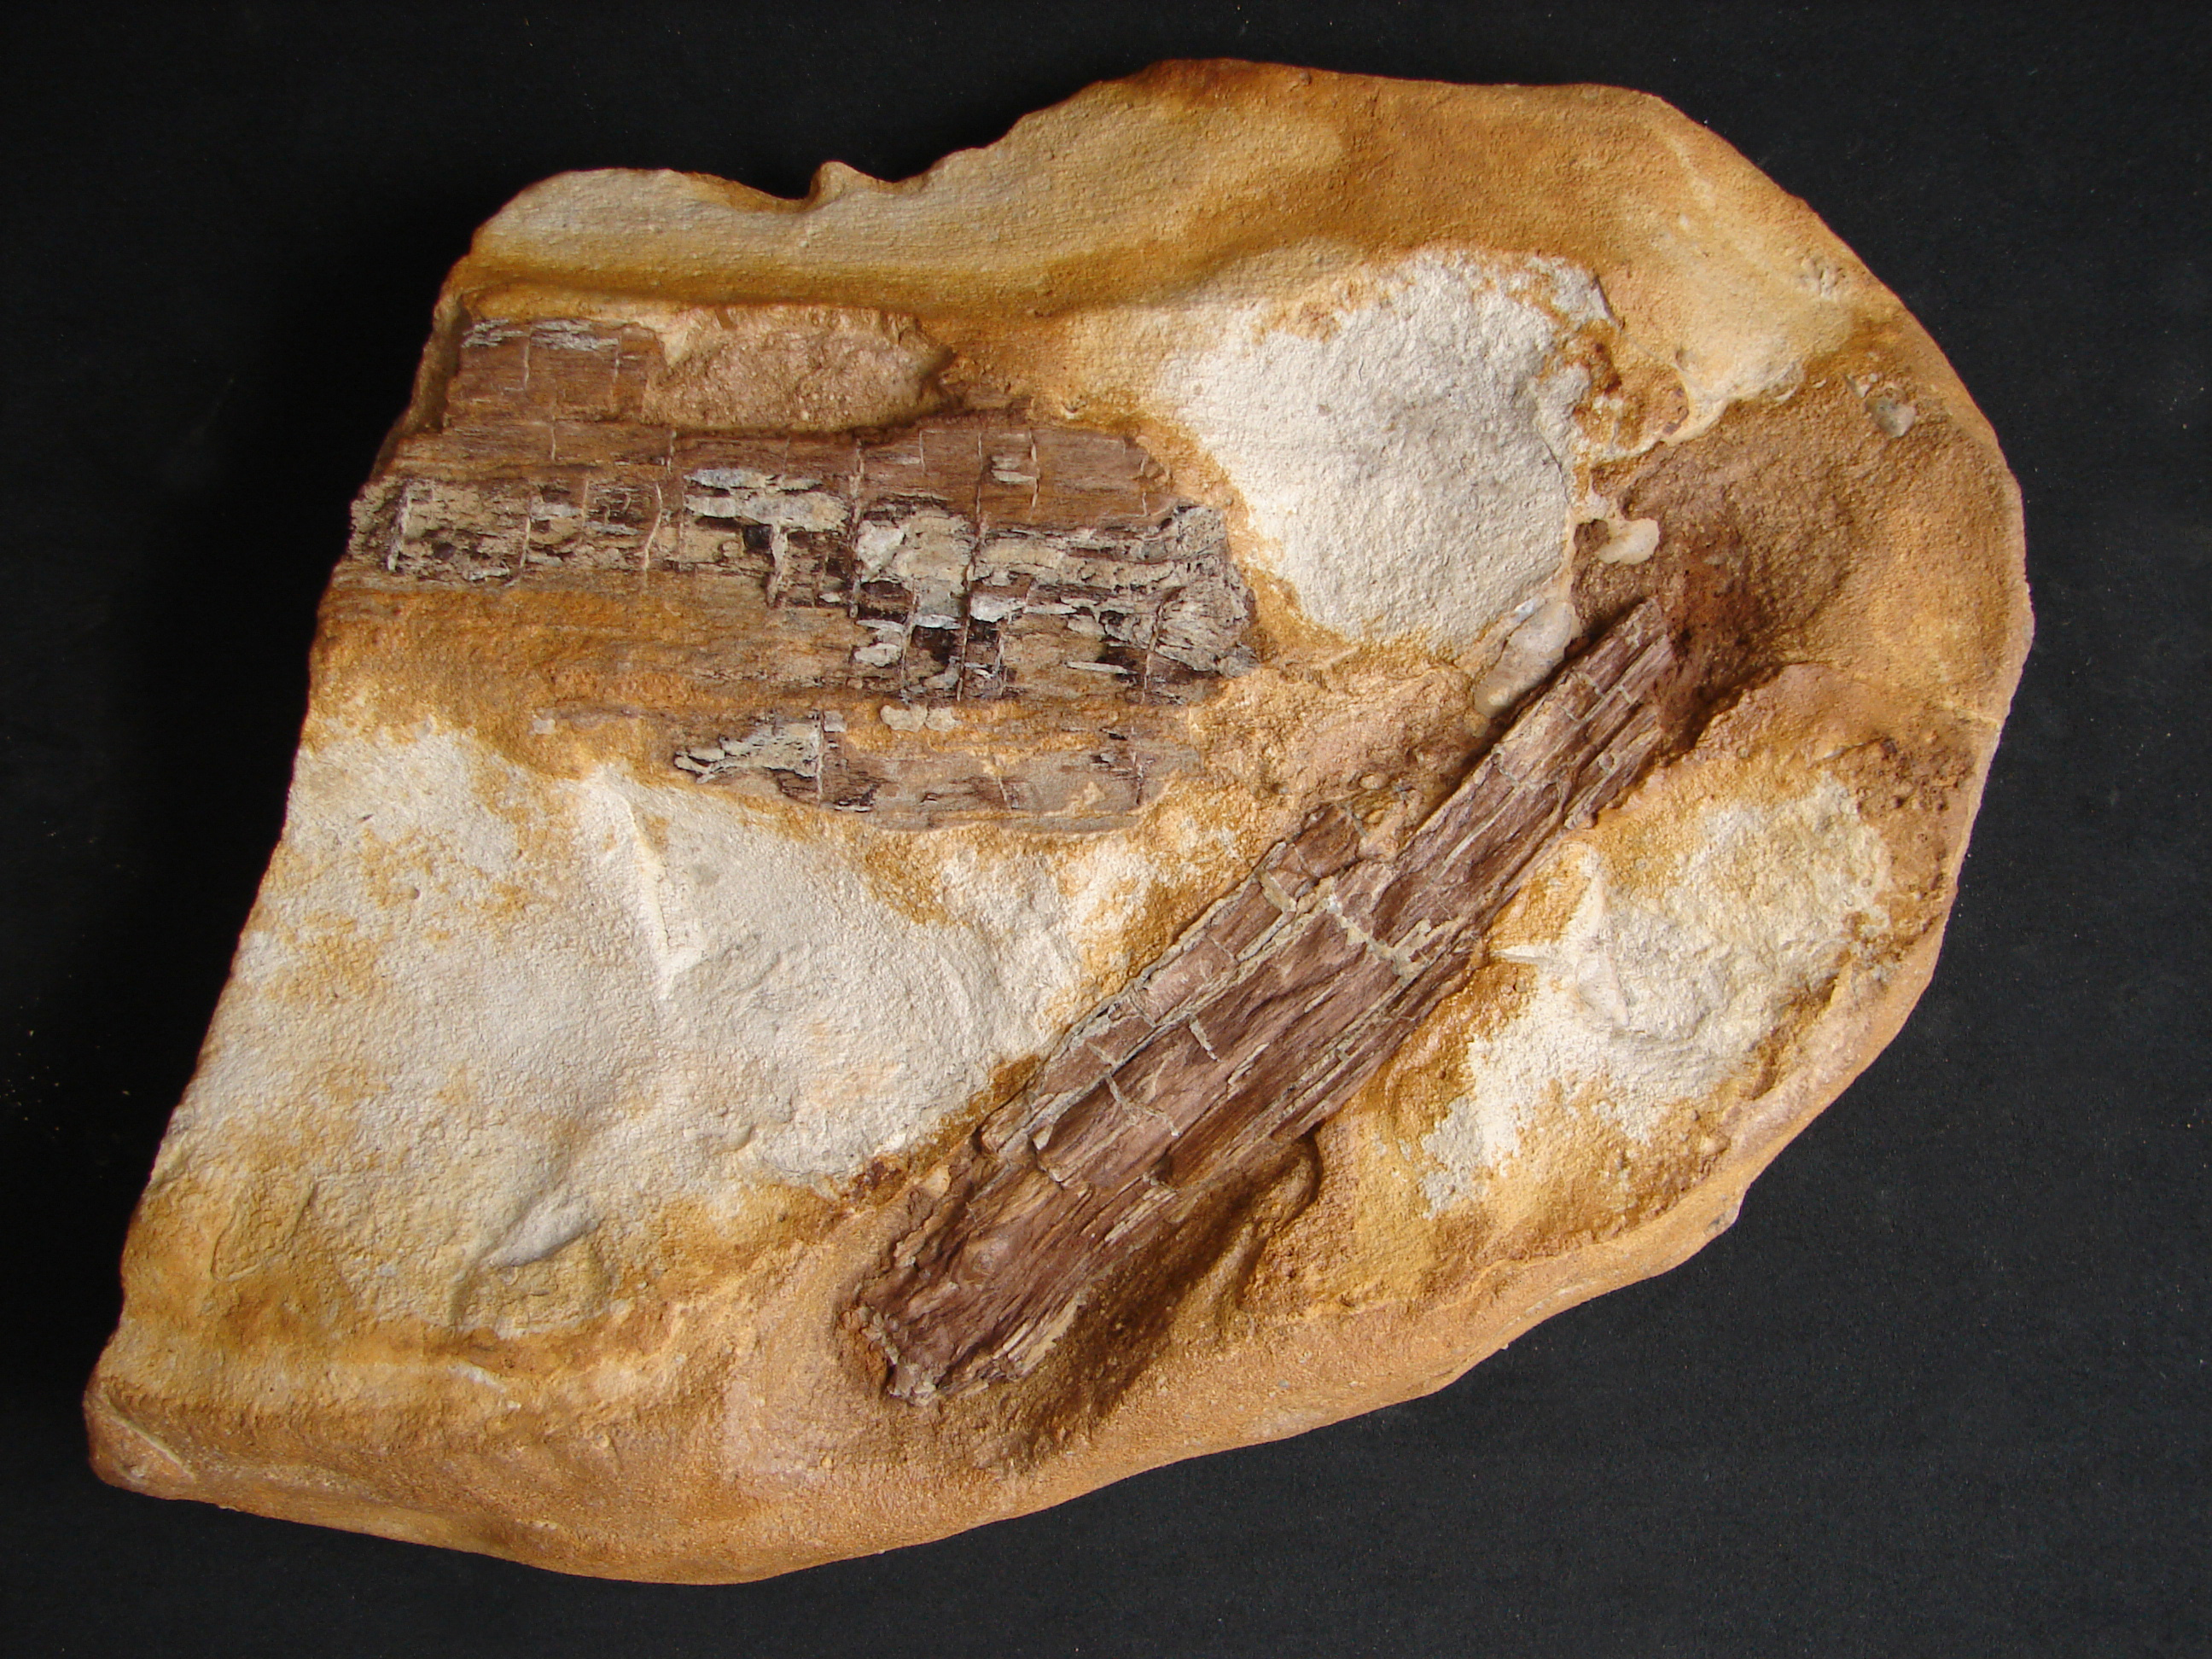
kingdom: Plantae
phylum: Tracheophyta
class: Pinopsida
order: Pinales
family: Cupressaceae
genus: Widdringtonites
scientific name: Widdringtonites
